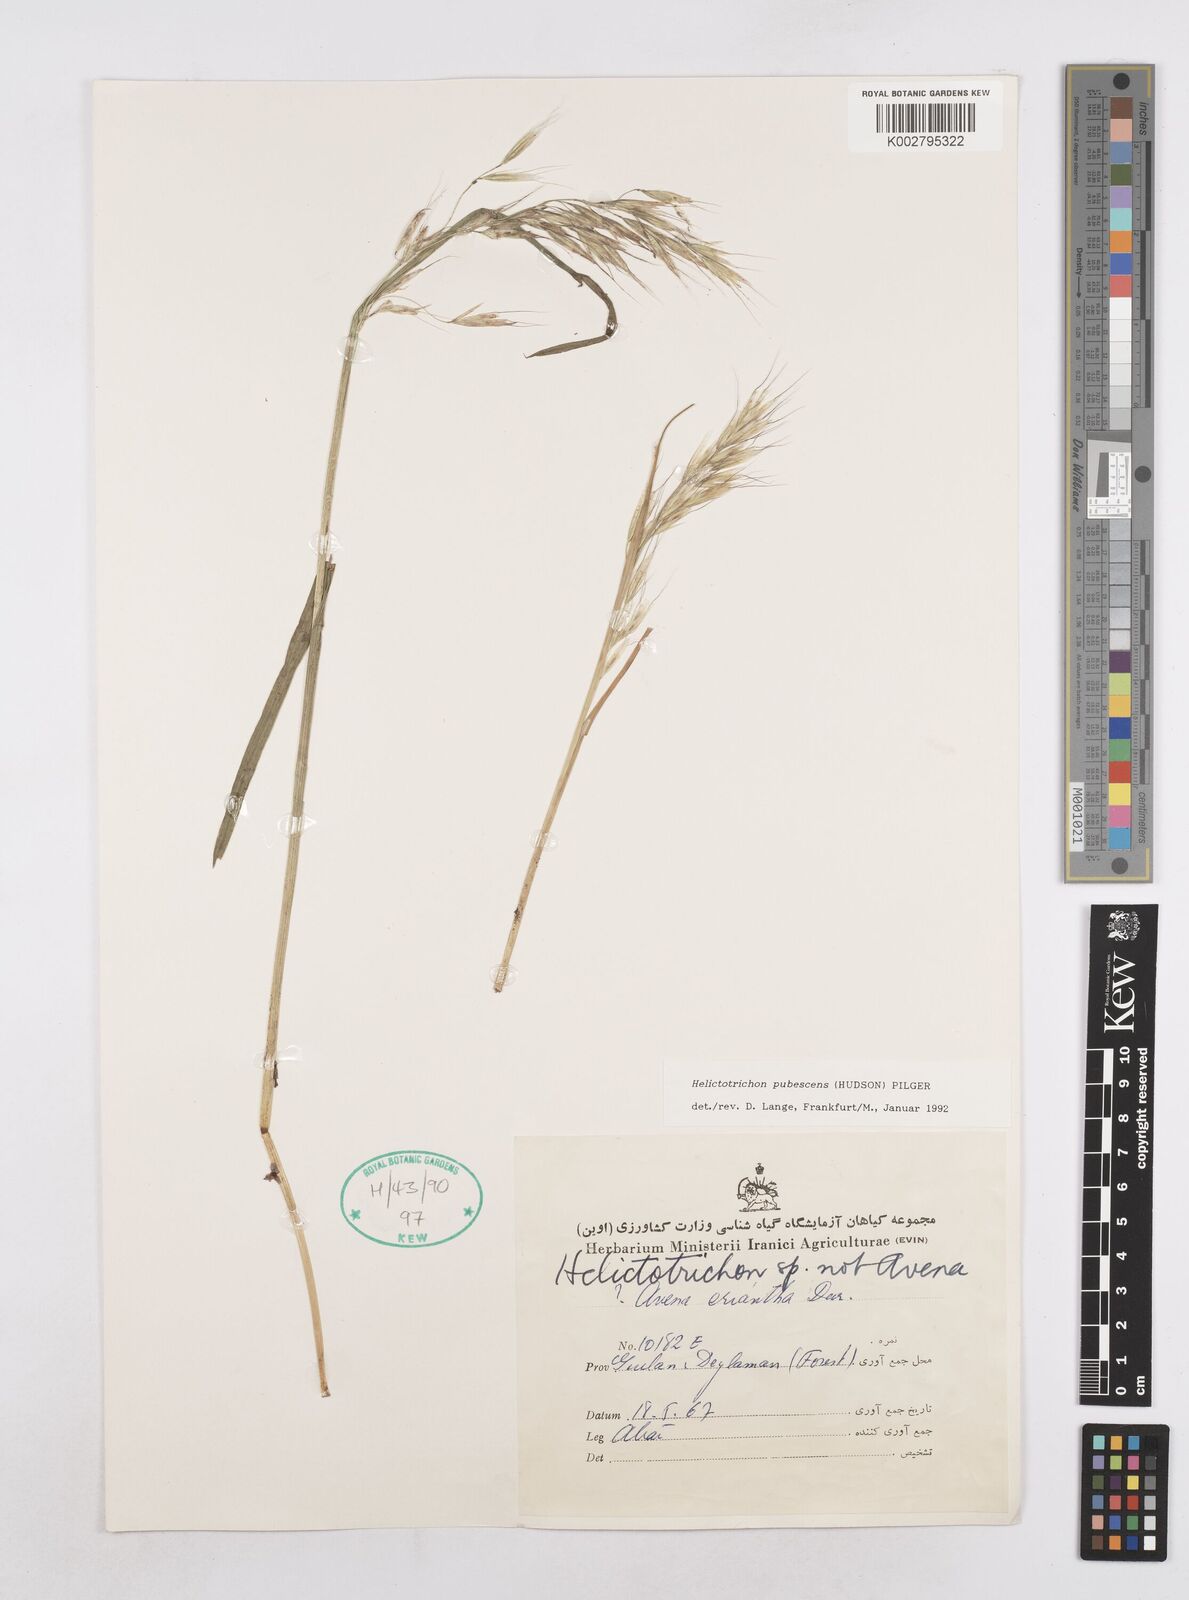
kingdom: Plantae
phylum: Tracheophyta
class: Liliopsida
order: Poales
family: Poaceae
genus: Avenula
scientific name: Avenula pubescens
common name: Downy alpine oatgrass
